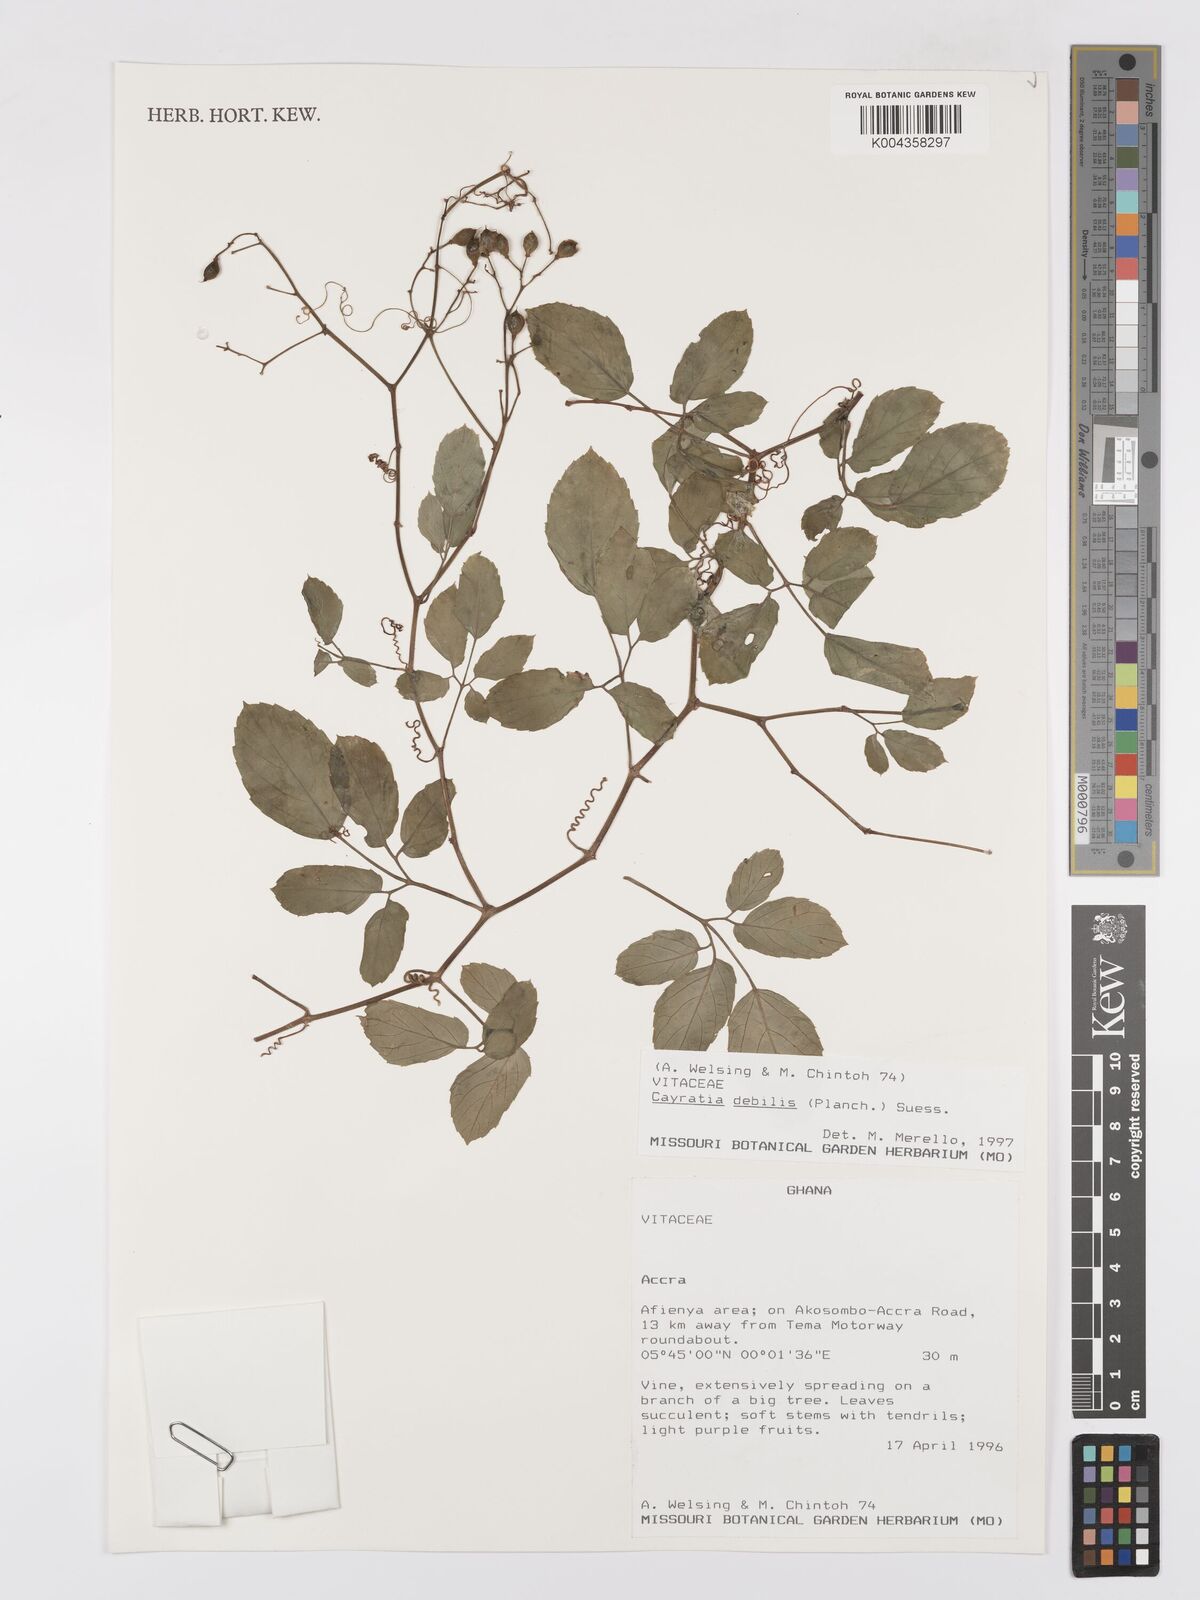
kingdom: Plantae
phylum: Tracheophyta
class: Magnoliopsida
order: Vitales
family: Vitaceae
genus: Afrocayratia
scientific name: Afrocayratia debilis
